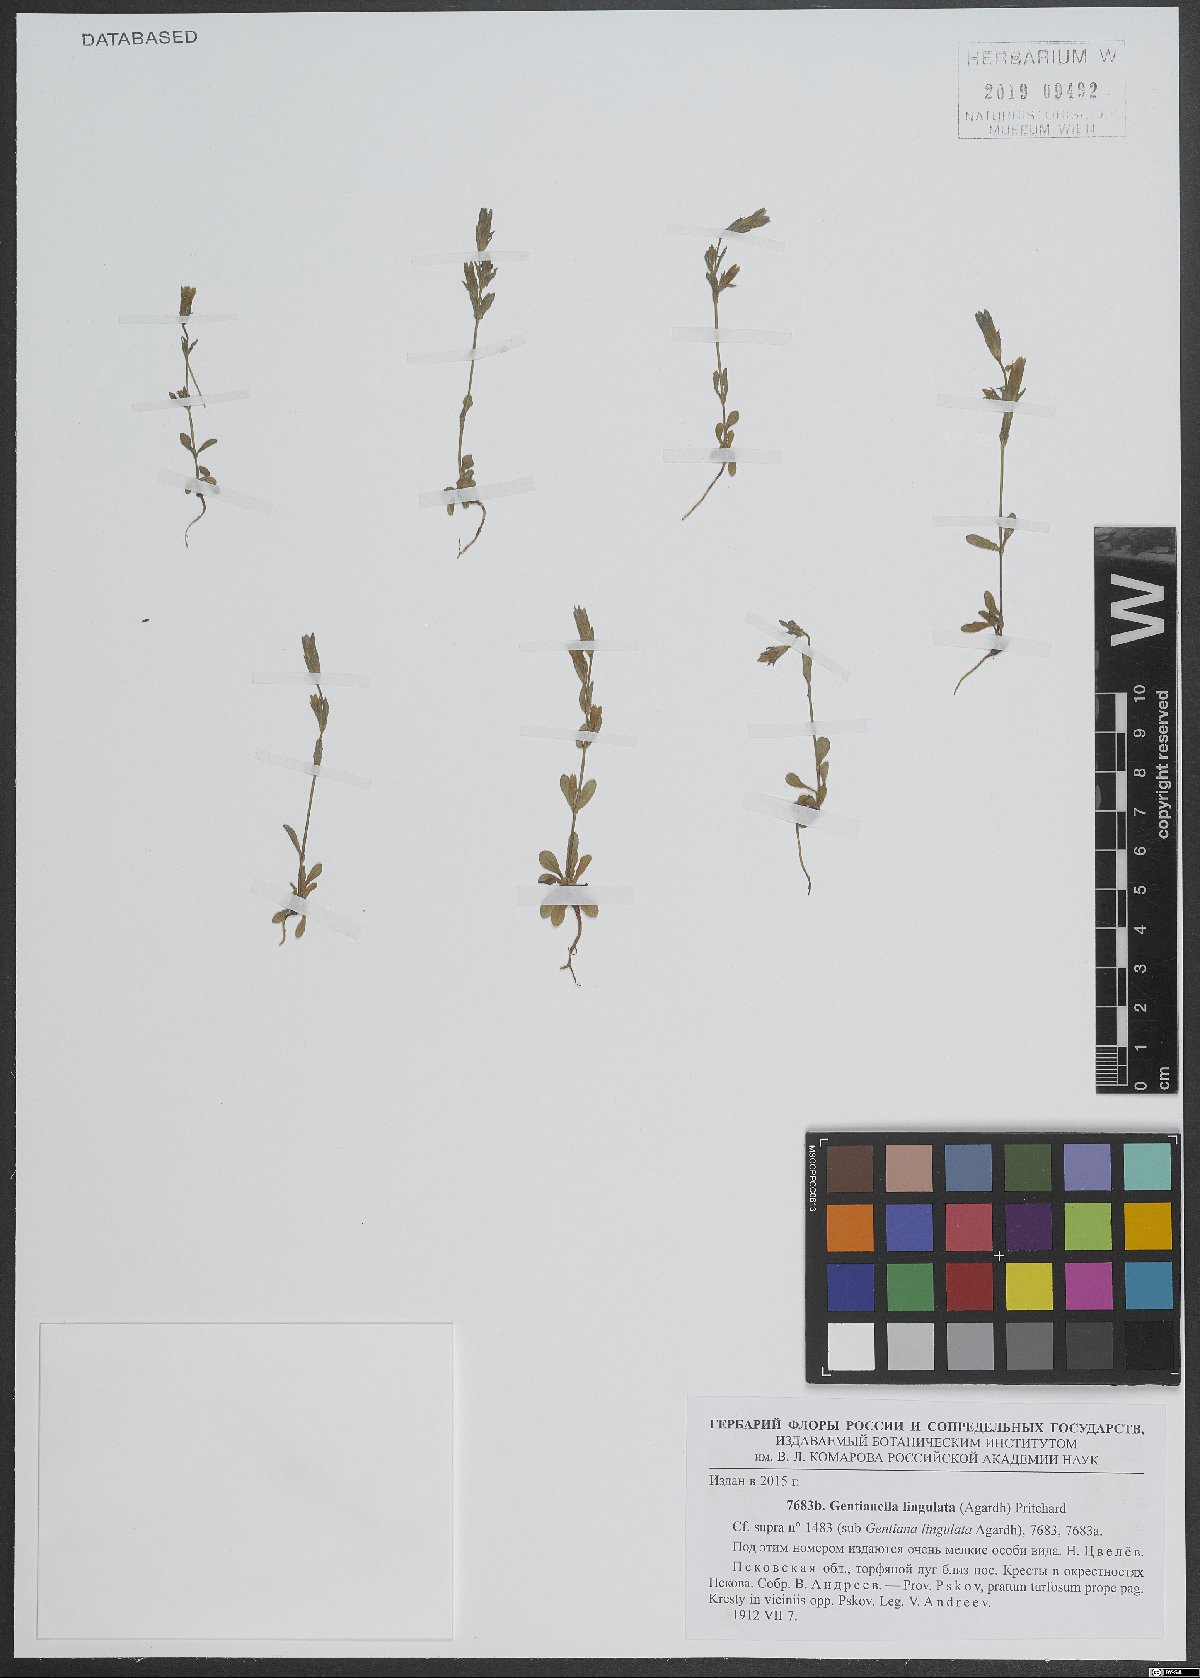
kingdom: Plantae
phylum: Tracheophyta
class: Magnoliopsida
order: Gentianales
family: Gentianaceae
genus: Gentianella
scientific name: Gentianella
